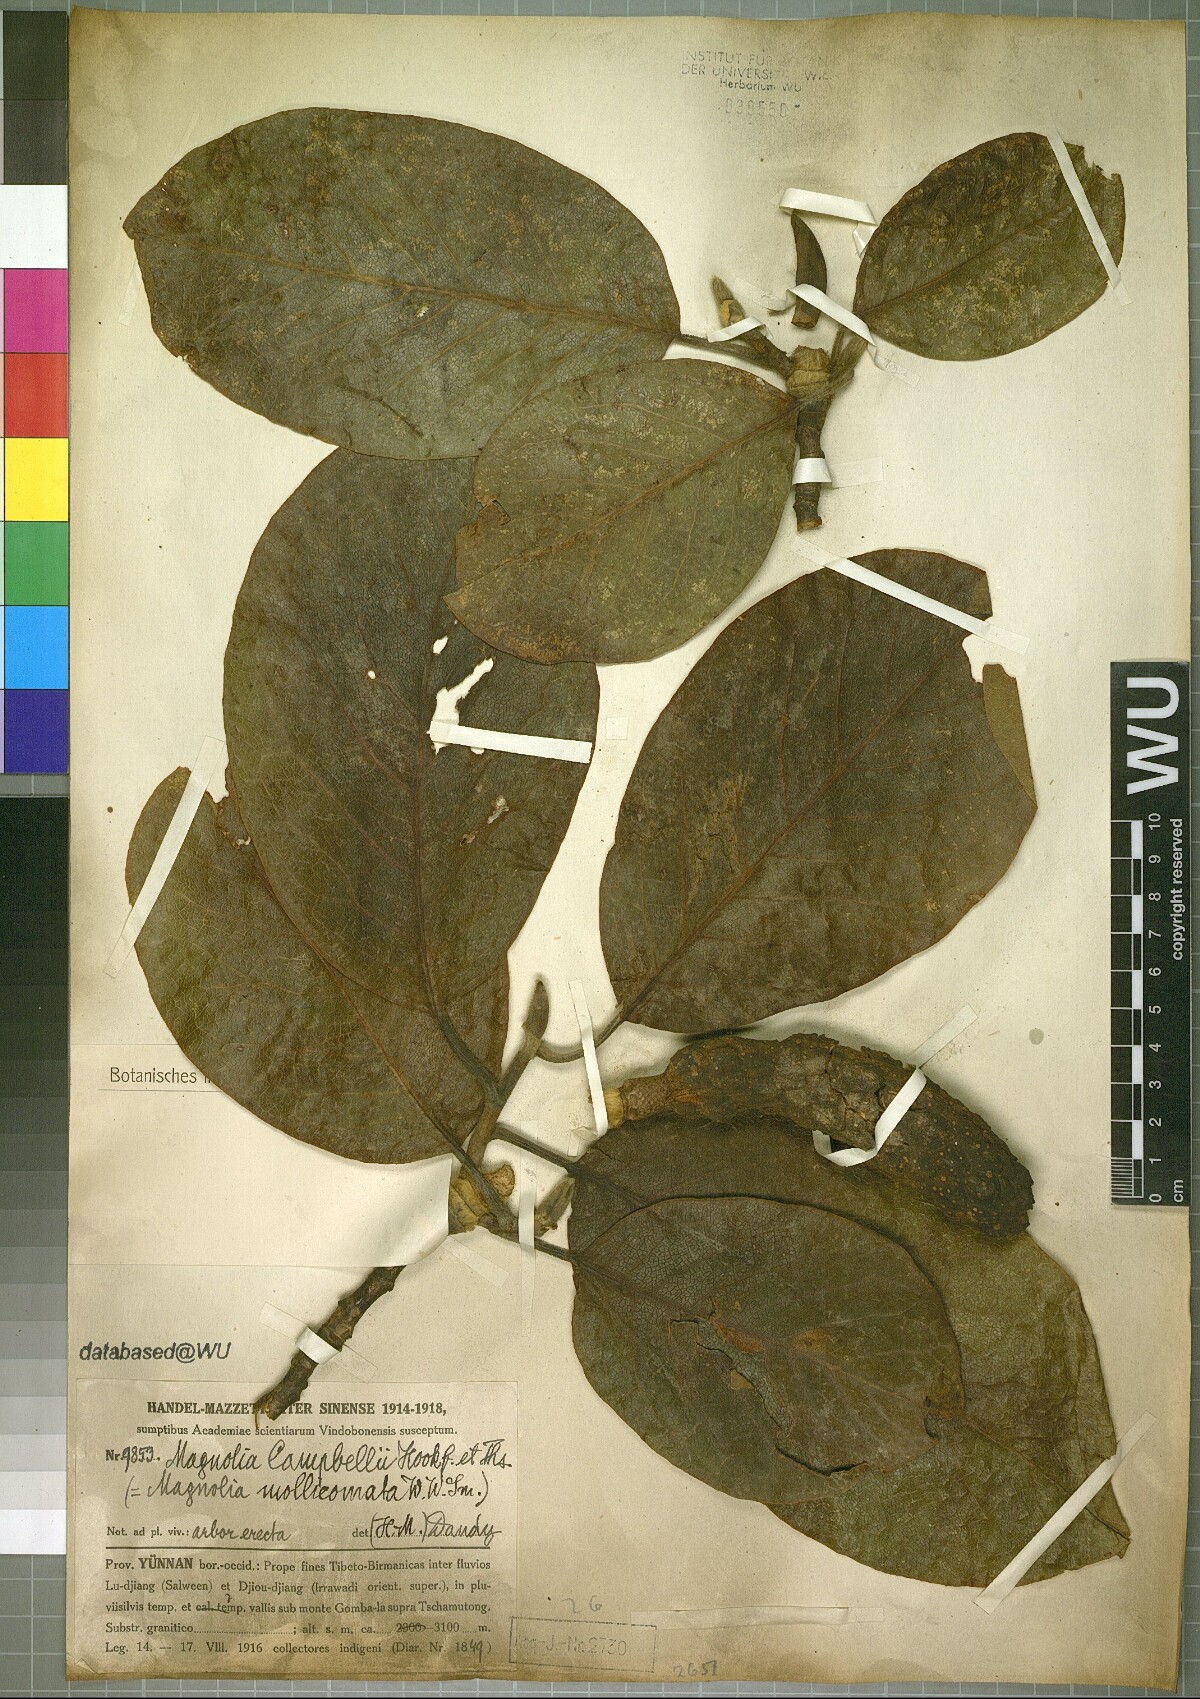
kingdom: Plantae
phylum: Tracheophyta
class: Magnoliopsida
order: Magnoliales
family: Magnoliaceae
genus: Magnolia
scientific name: Magnolia campbellii
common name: Campbell's magnolia
